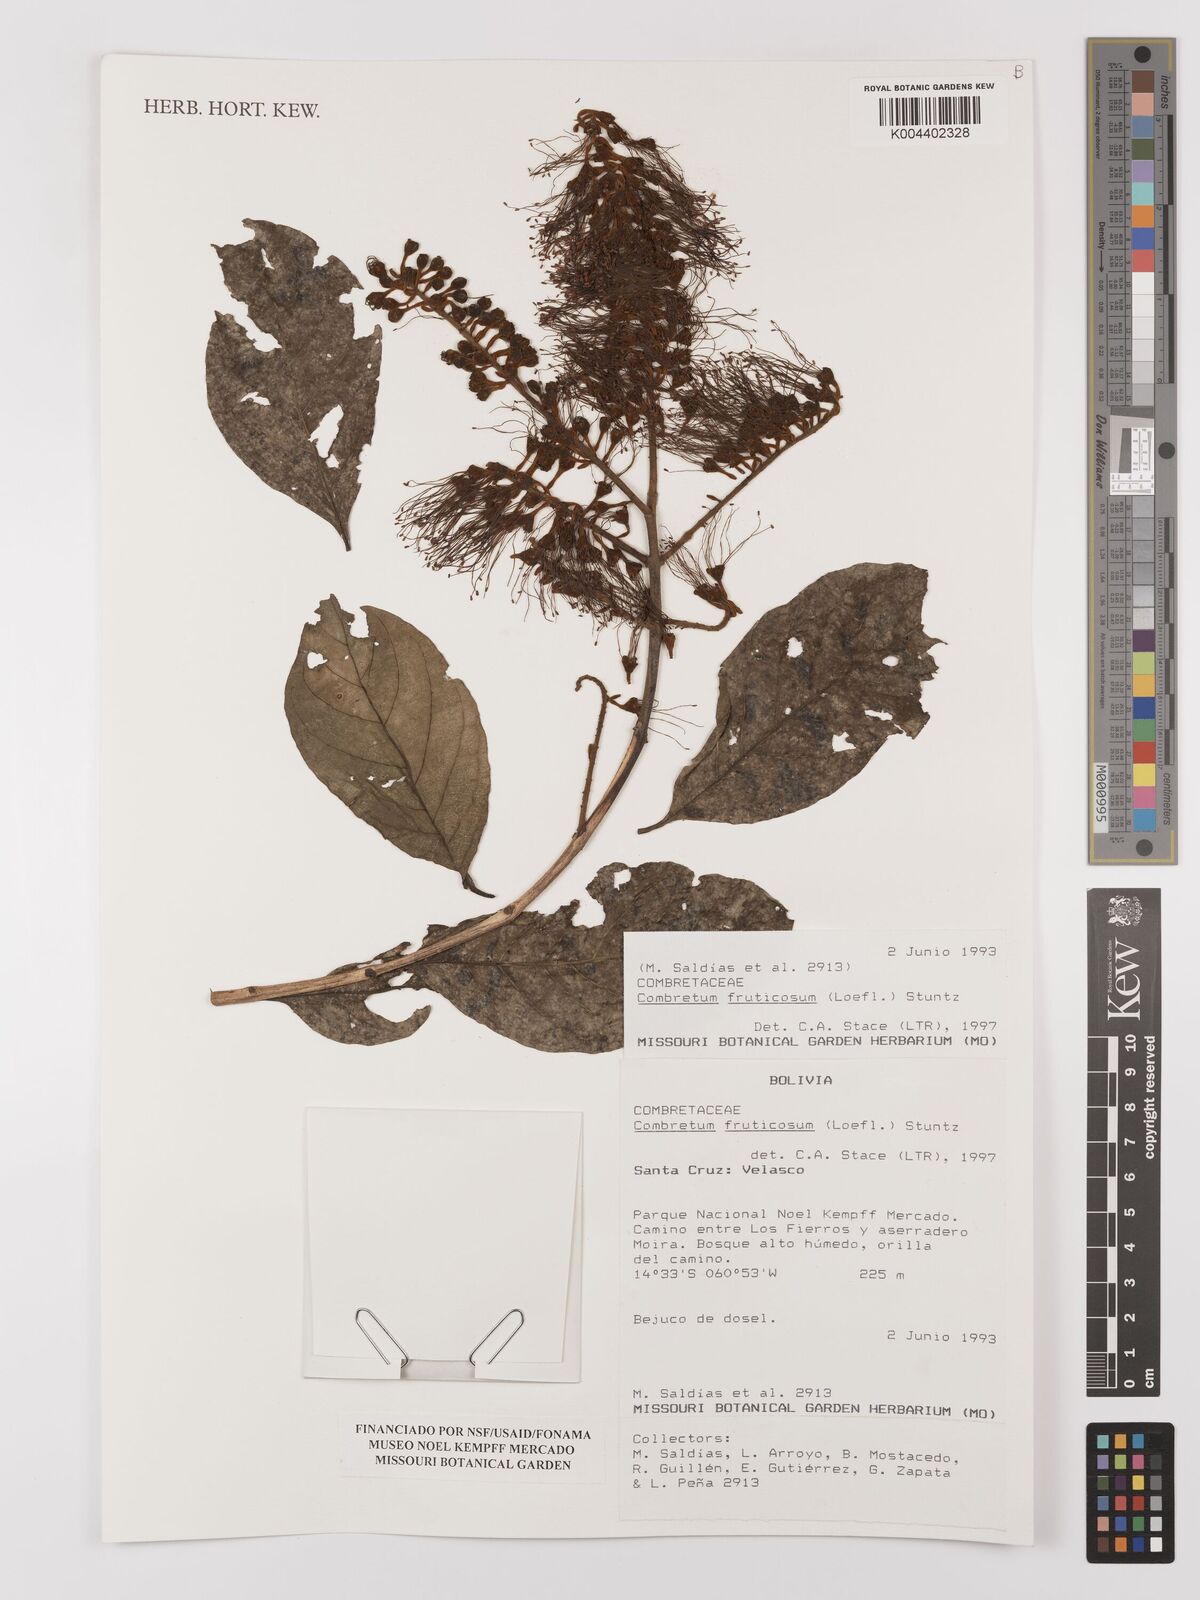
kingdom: Plantae
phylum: Tracheophyta
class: Magnoliopsida
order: Myrtales
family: Combretaceae
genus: Combretum
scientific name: Combretum fruticosum
